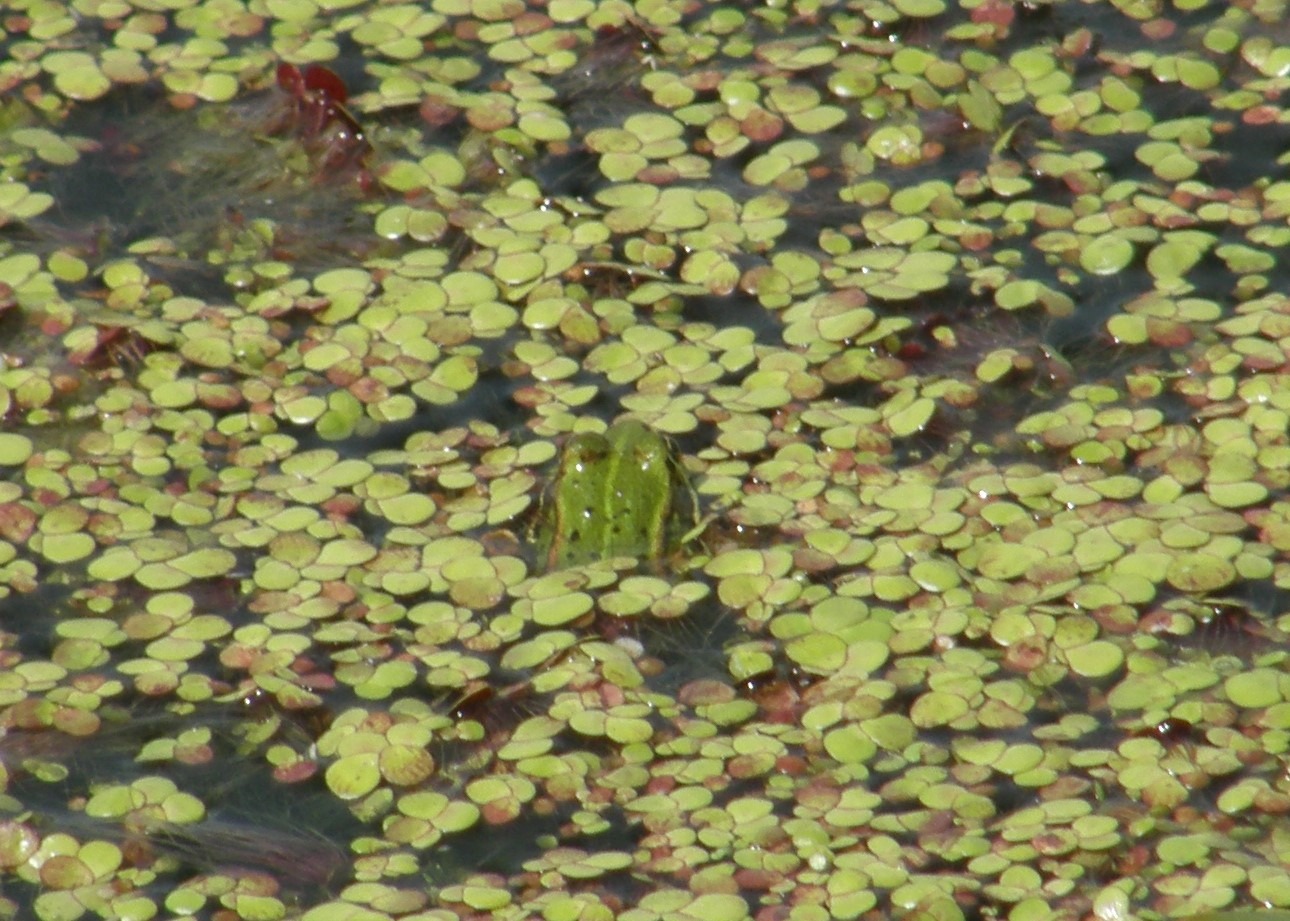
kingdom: Animalia
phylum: Chordata
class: Amphibia
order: Anura
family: Ranidae
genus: Pelophylax
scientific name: Pelophylax lessonae
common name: Grøn frø
